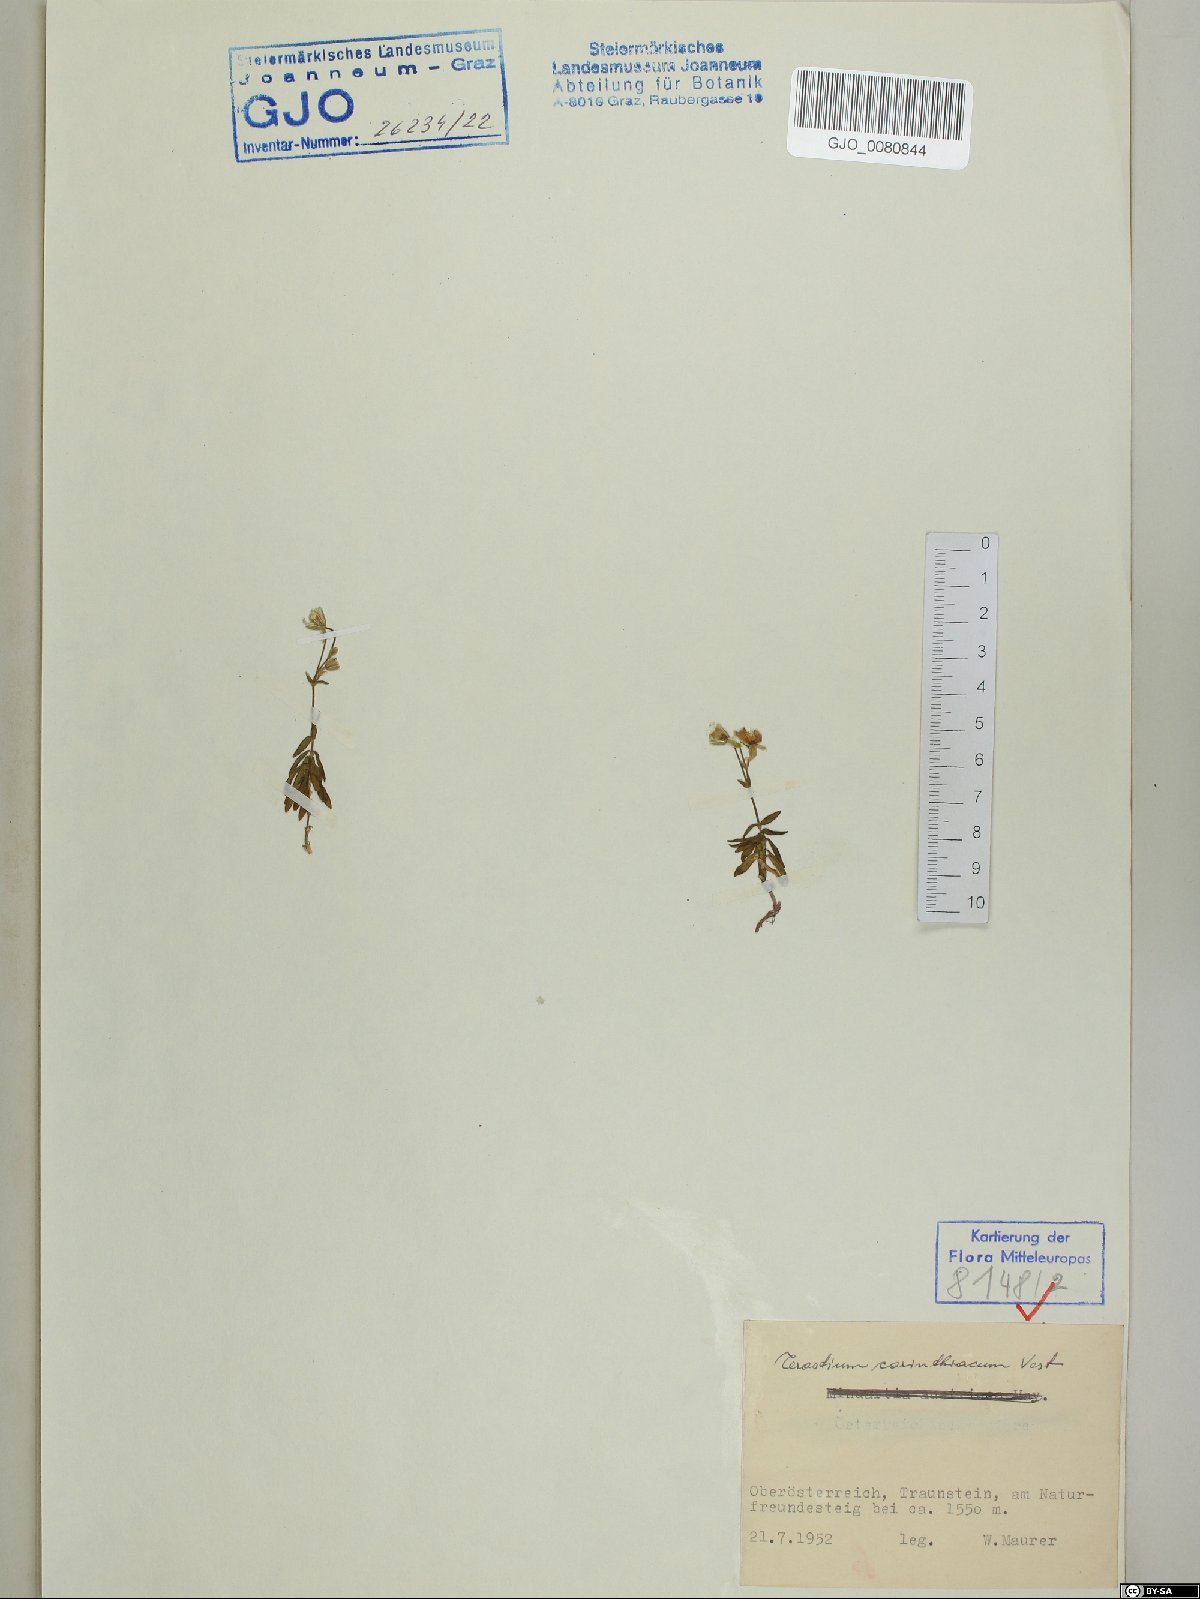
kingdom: Plantae
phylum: Tracheophyta
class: Magnoliopsida
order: Caryophyllales
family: Caryophyllaceae
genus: Cerastium
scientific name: Cerastium carinthiacum
